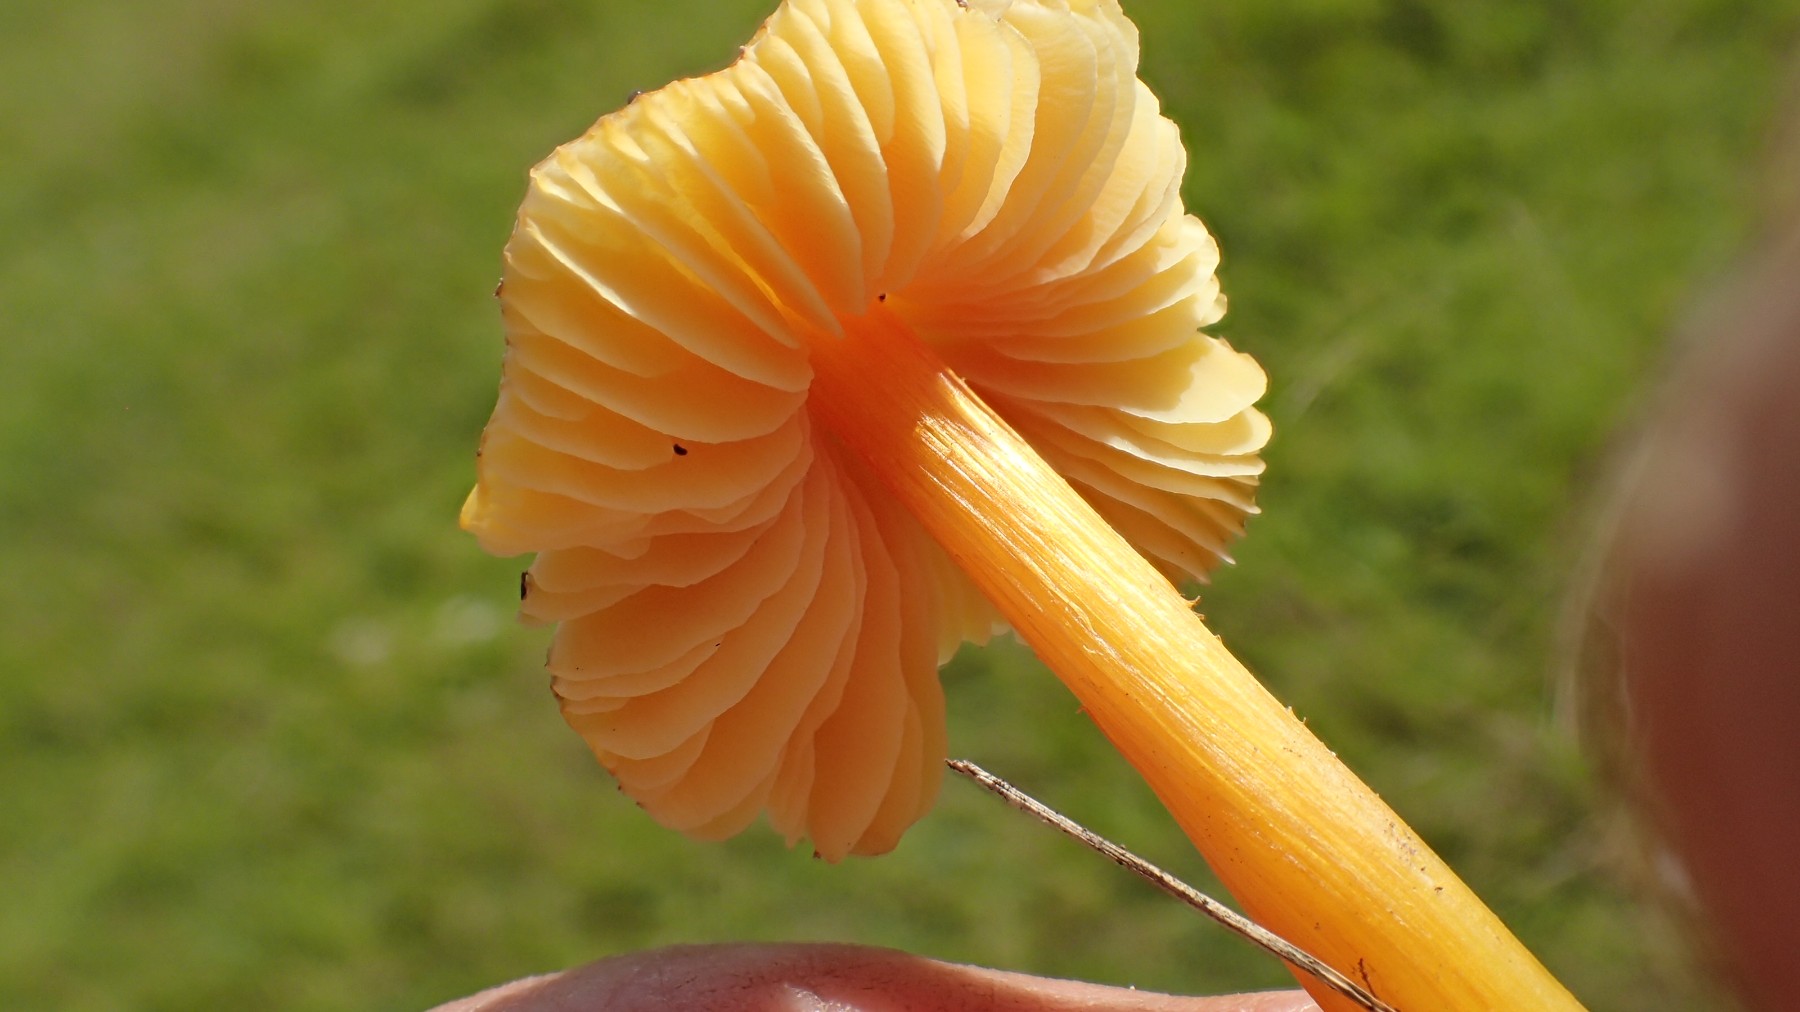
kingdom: Fungi
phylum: Basidiomycota
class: Agaricomycetes
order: Agaricales
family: Hygrophoraceae
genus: Hygrocybe
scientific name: Hygrocybe acutoconica
